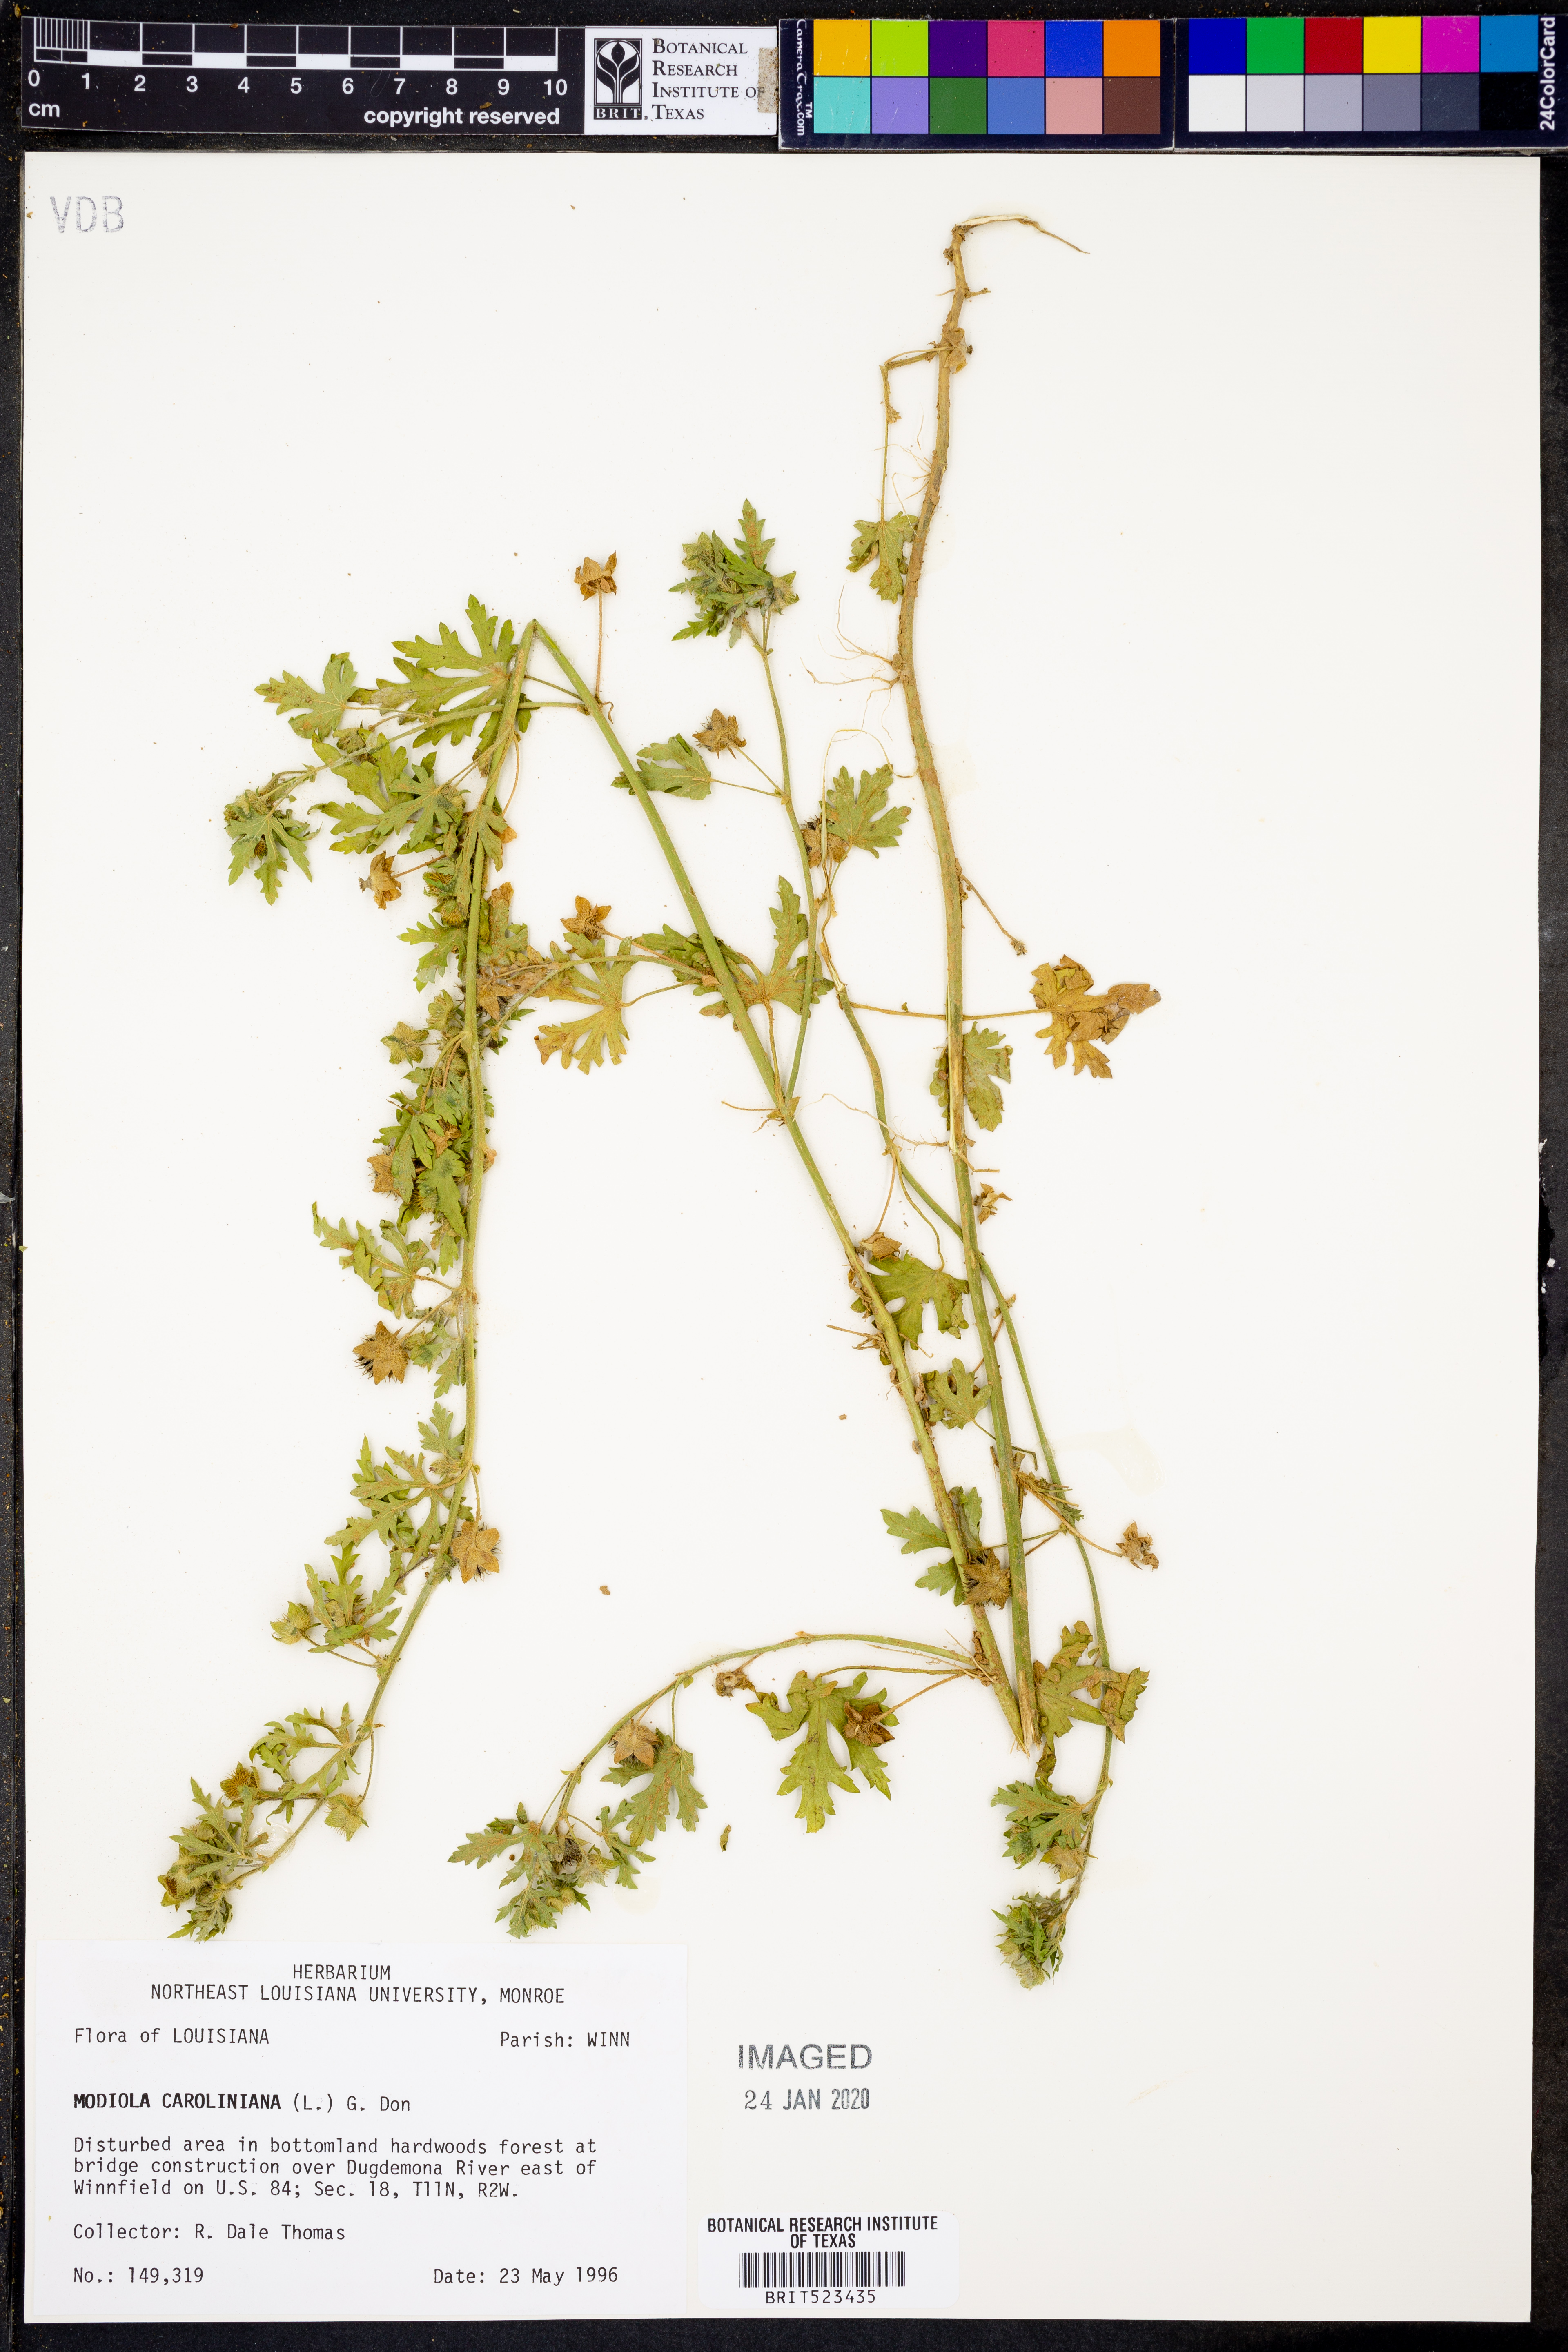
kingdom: Plantae
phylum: Tracheophyta
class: Magnoliopsida
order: Malvales
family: Malvaceae
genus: Modiola
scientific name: Modiola caroliniana
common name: Carolina bristlemallow
